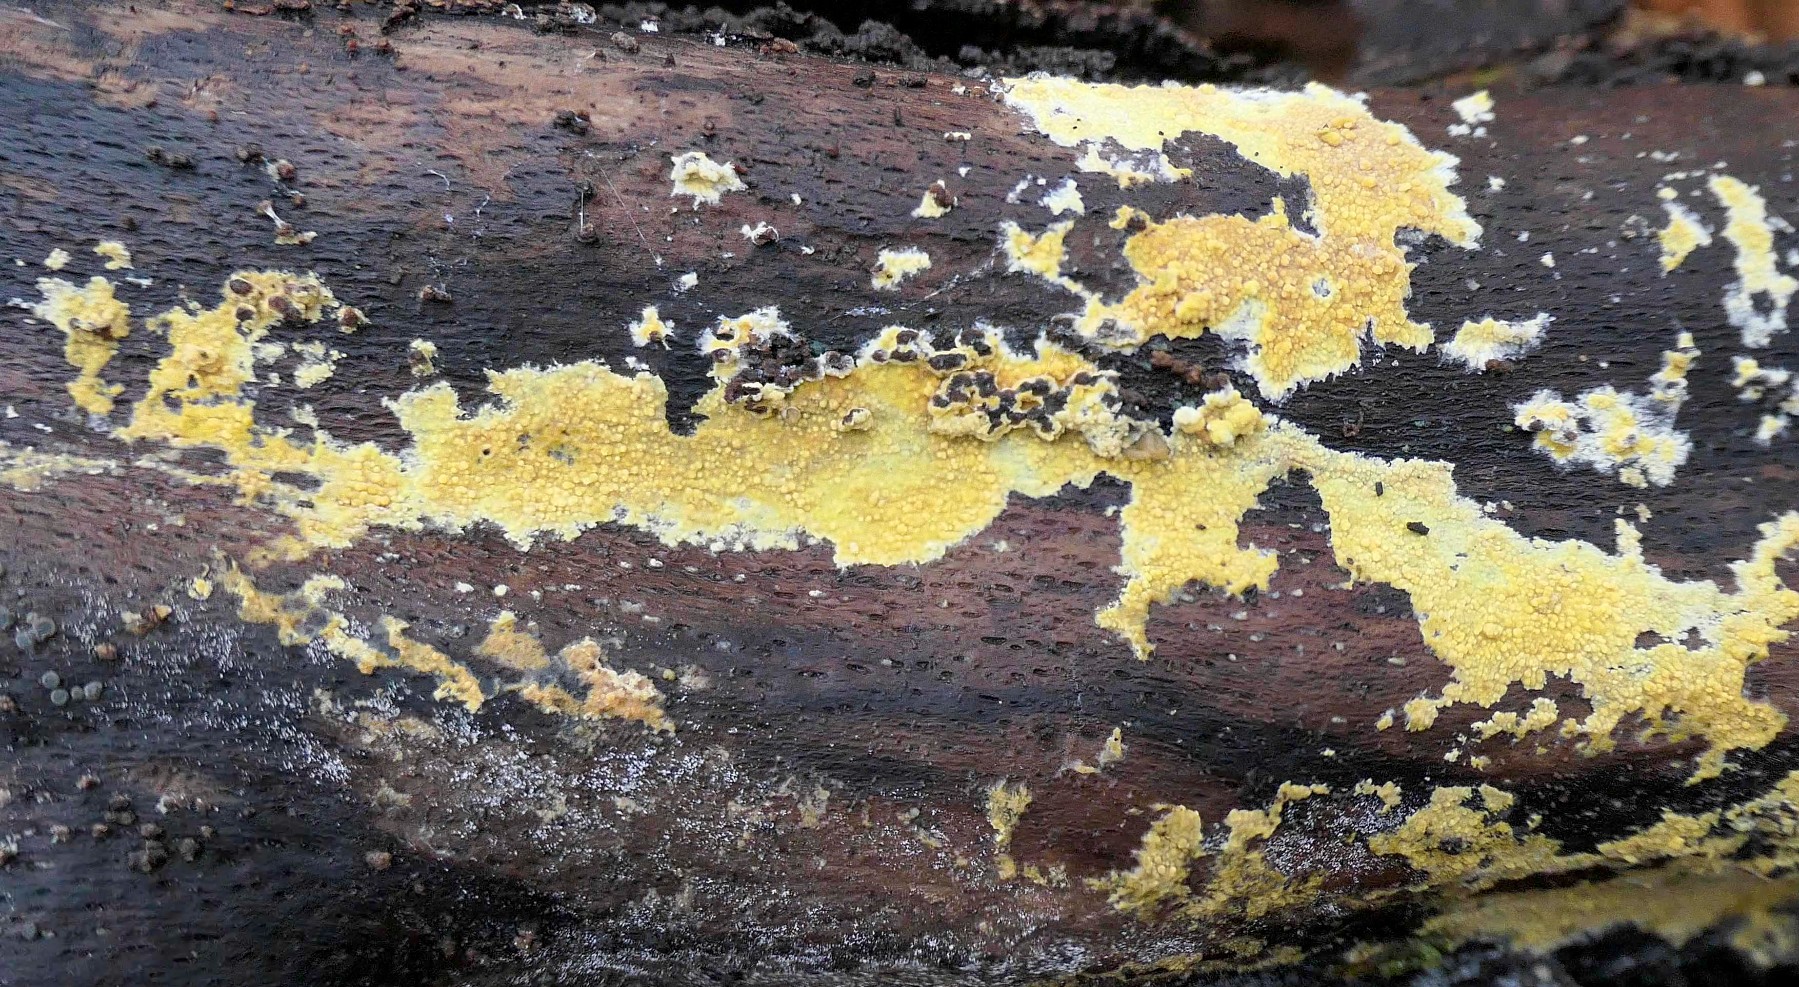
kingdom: Fungi
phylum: Basidiomycota
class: Agaricomycetes
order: Polyporales
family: Meruliaceae
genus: Phlebiodontia
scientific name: Phlebiodontia subochracea
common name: svovl-åresvamp
